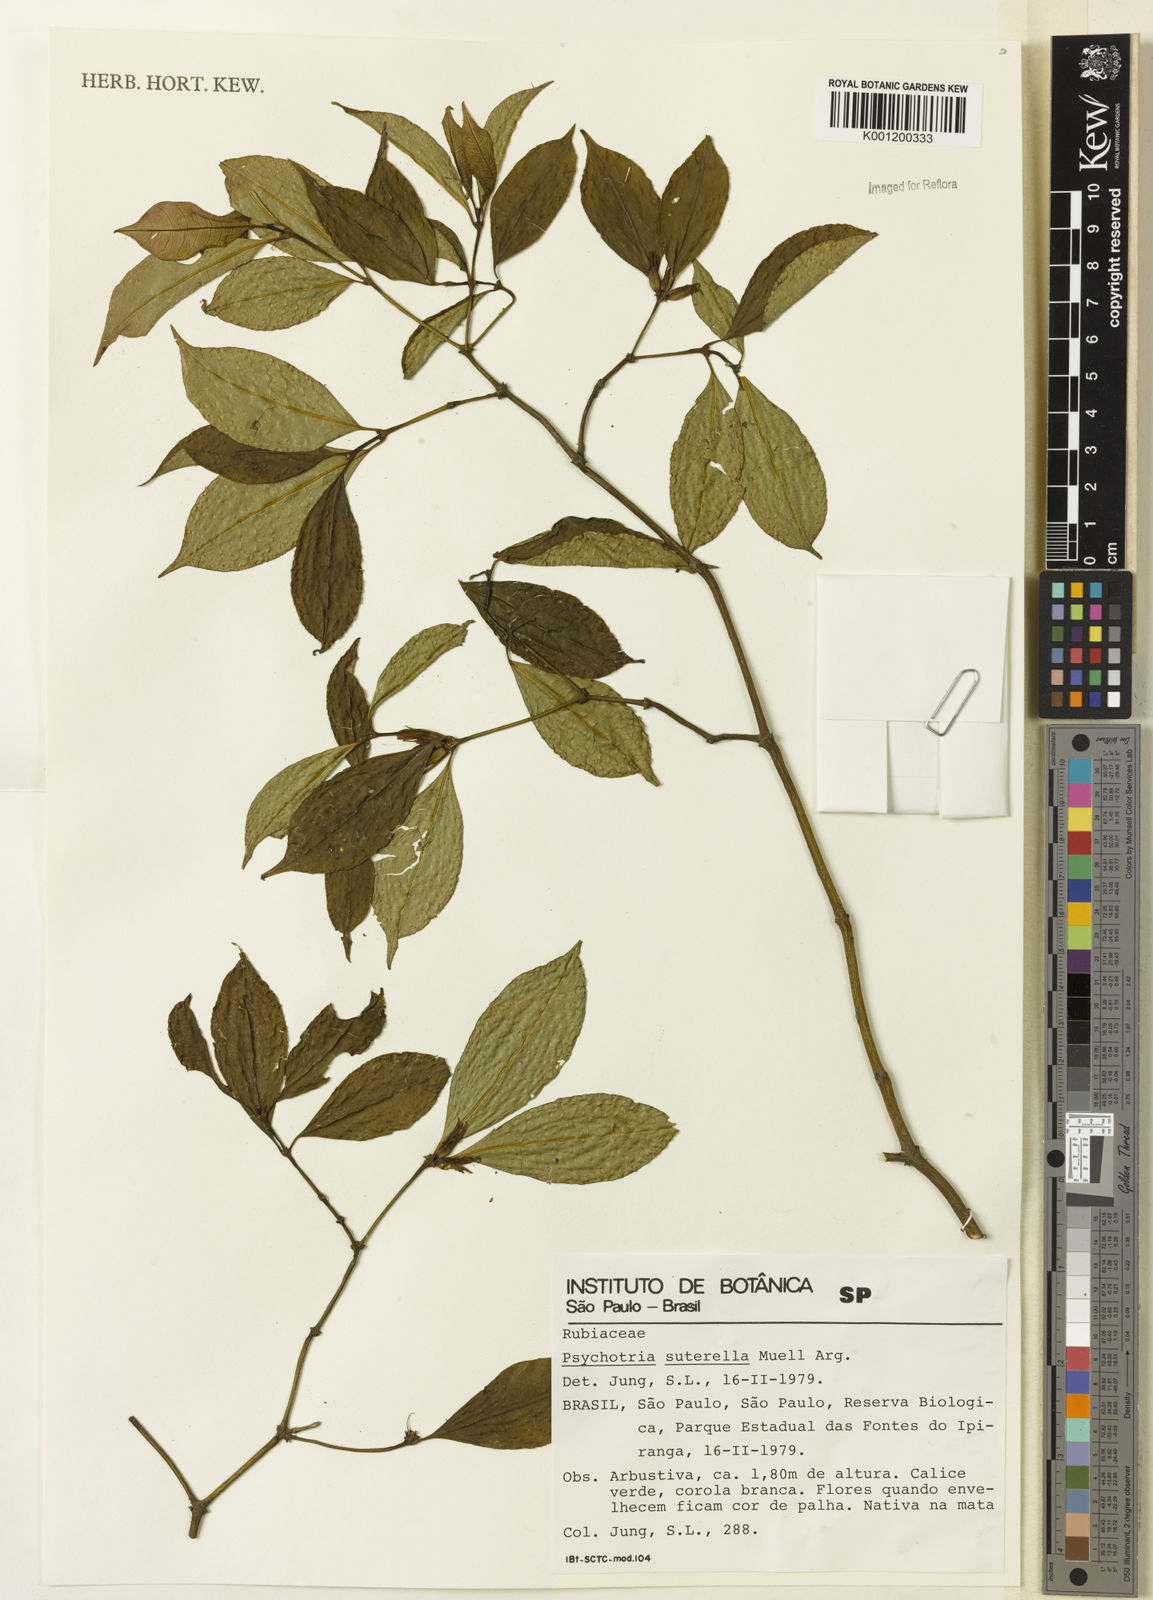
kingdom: Plantae
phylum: Tracheophyta
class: Magnoliopsida
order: Gentianales
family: Rubiaceae
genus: Psychotria
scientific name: Psychotria
